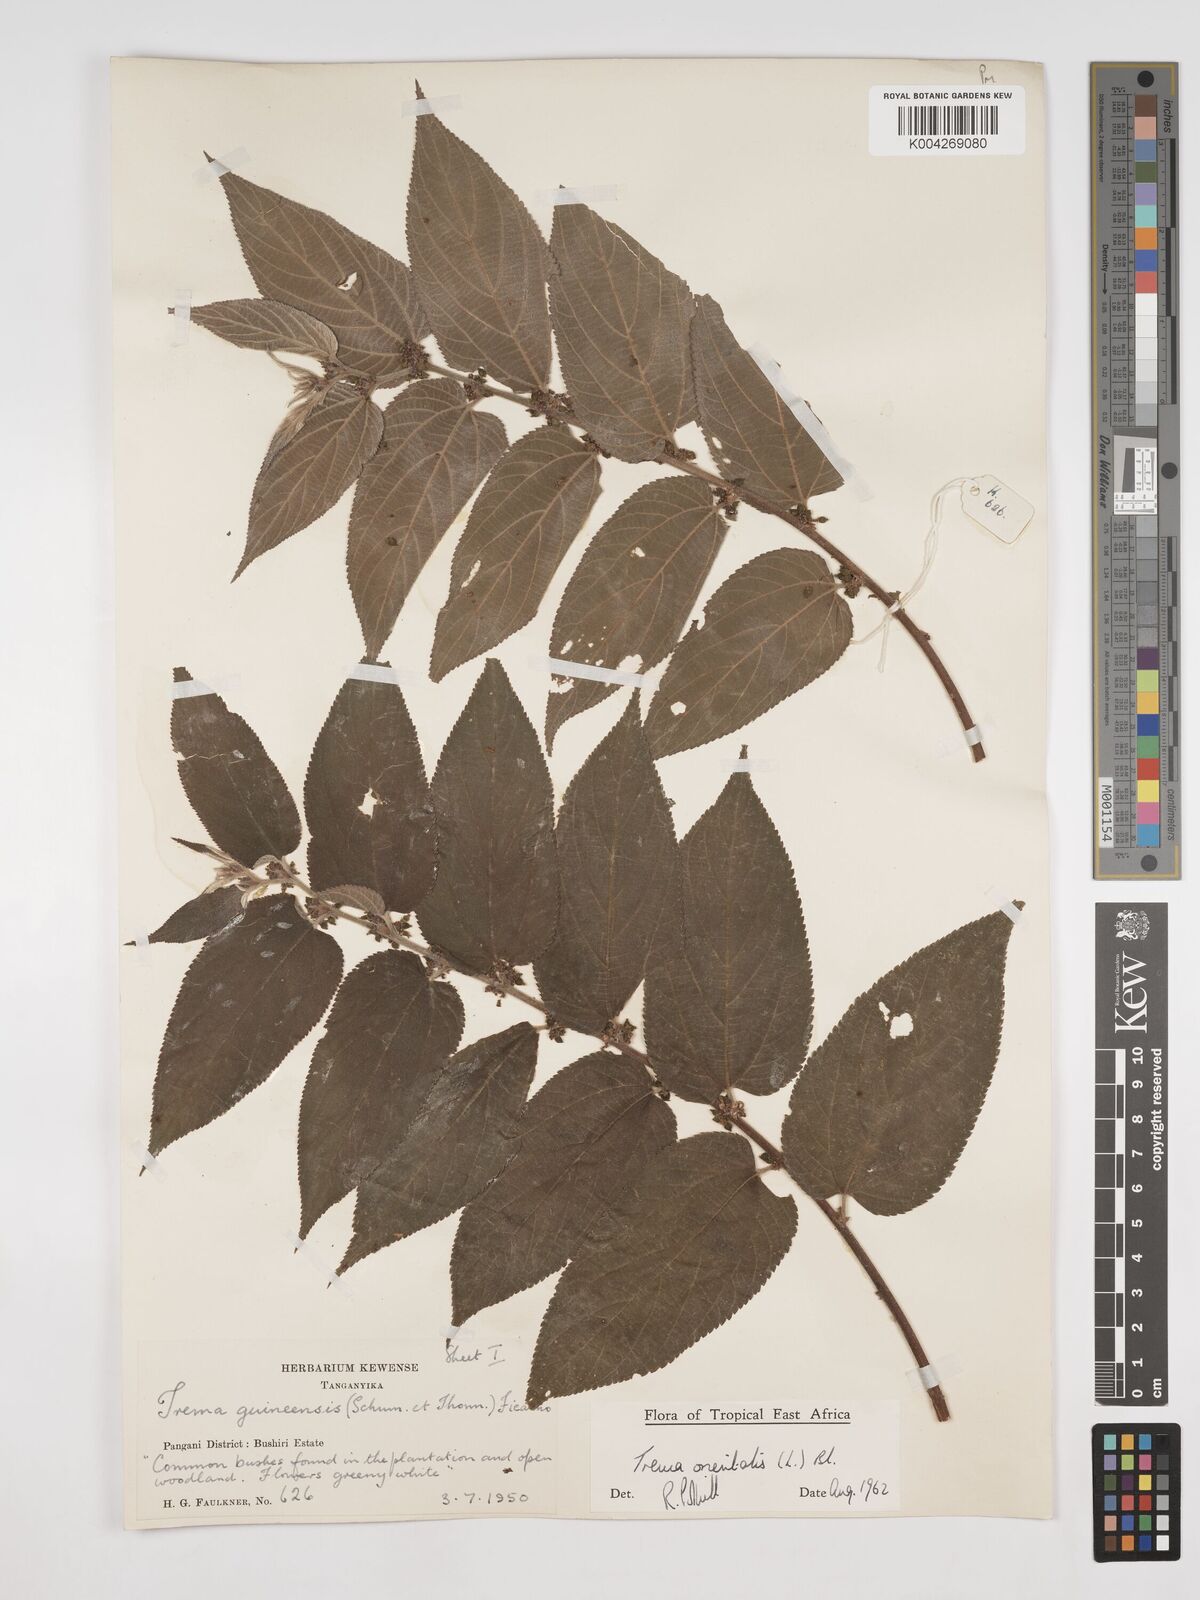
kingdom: Plantae
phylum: Tracheophyta
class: Magnoliopsida
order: Rosales
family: Cannabaceae
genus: Trema
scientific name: Trema orientale
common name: Indian charcoal tree
